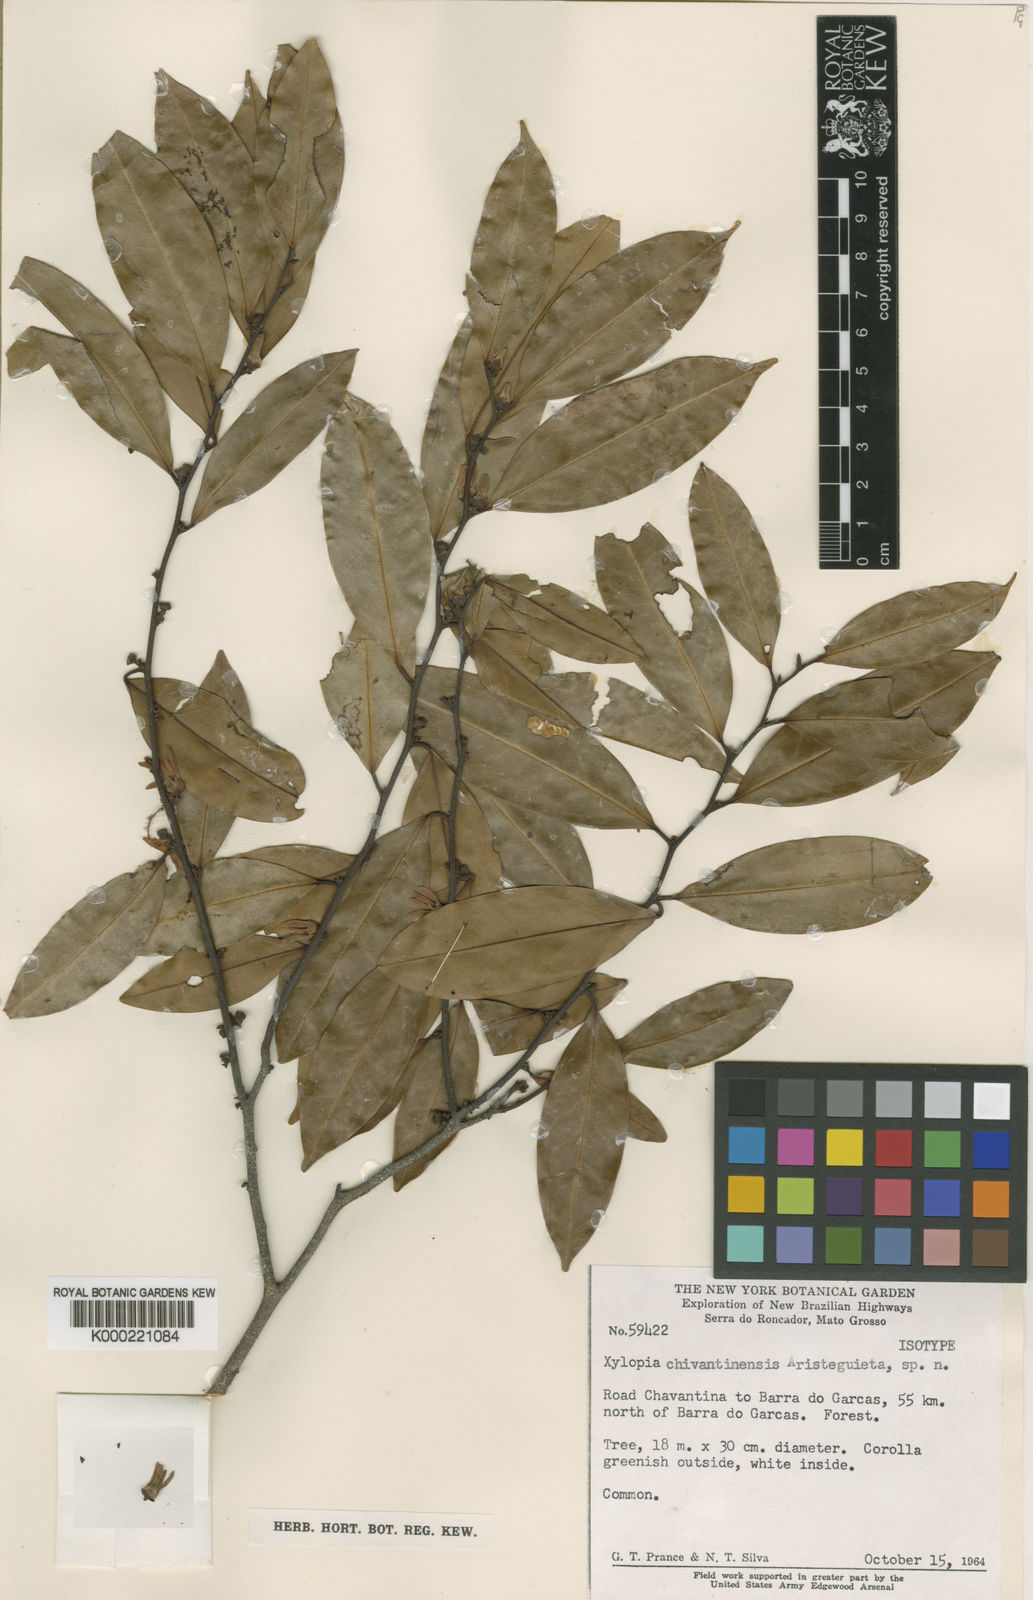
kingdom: Plantae
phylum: Tracheophyta
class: Magnoliopsida
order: Magnoliales
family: Annonaceae
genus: Xylopia
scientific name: Xylopia
